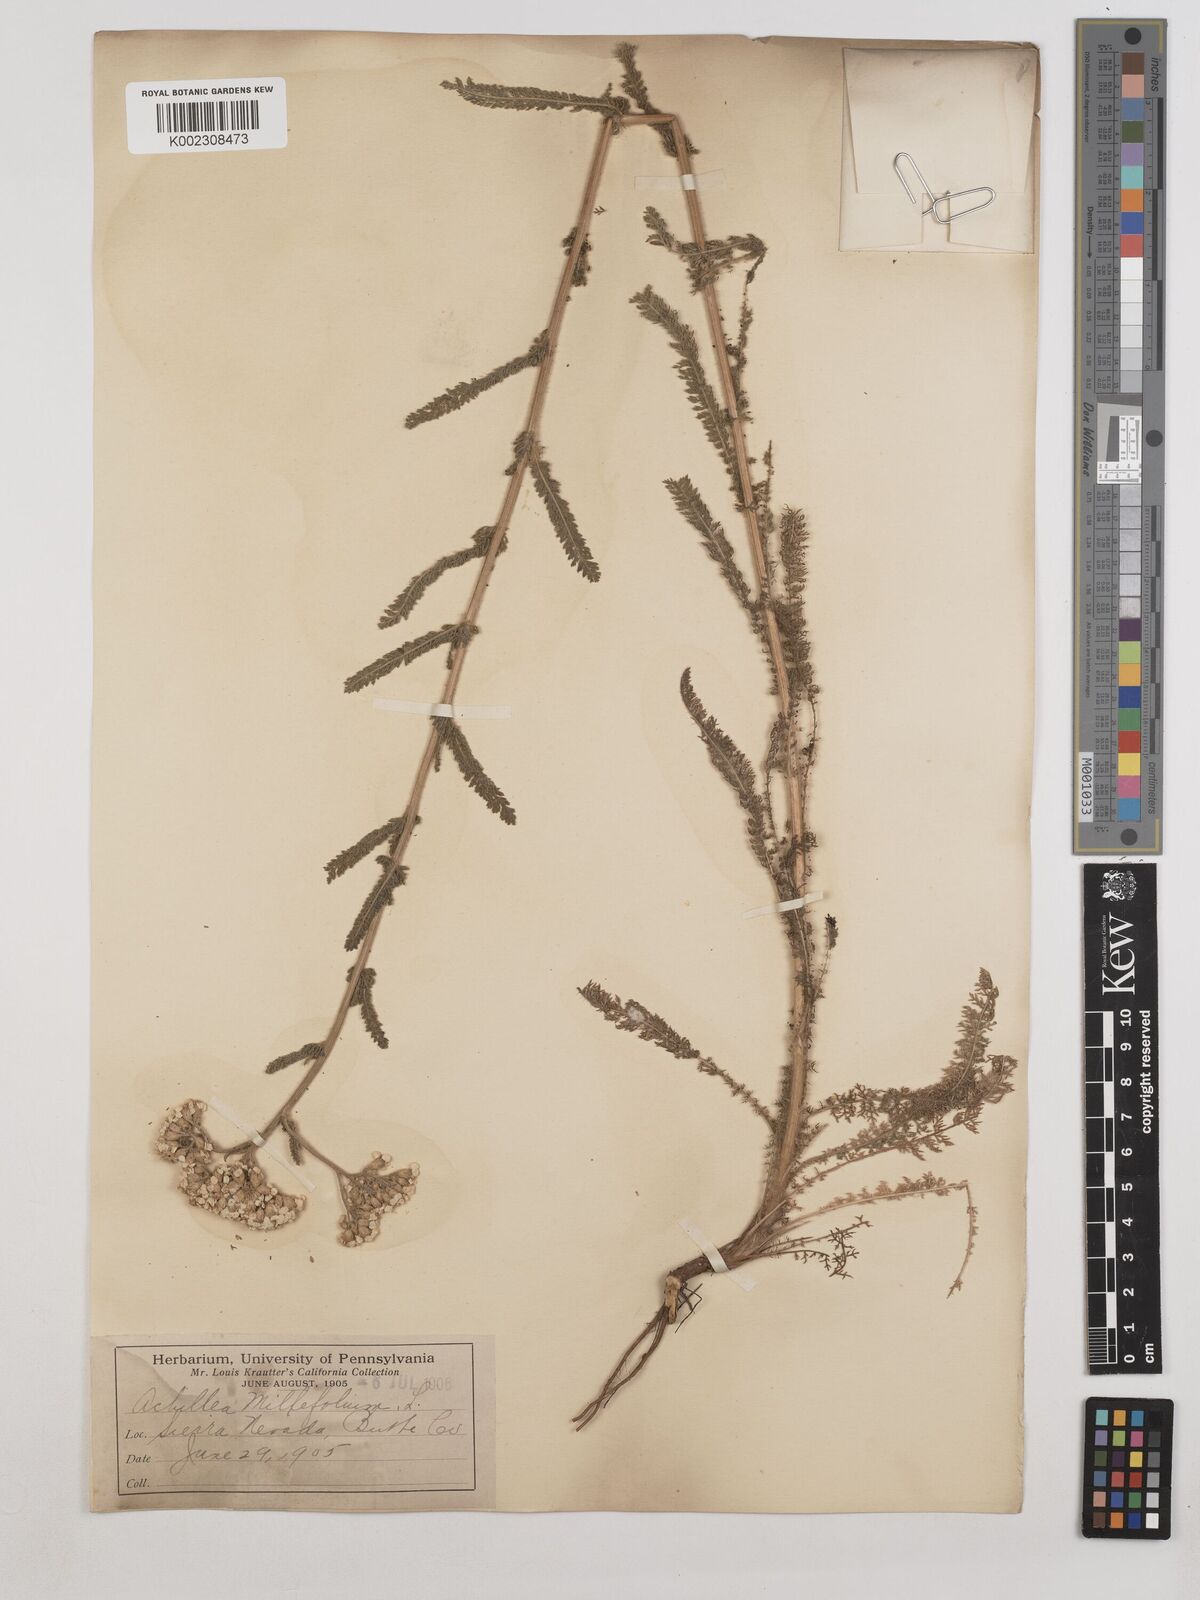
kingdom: Plantae
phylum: Tracheophyta
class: Magnoliopsida
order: Asterales
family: Asteraceae
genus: Achillea
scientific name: Achillea millefolium
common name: Yarrow
